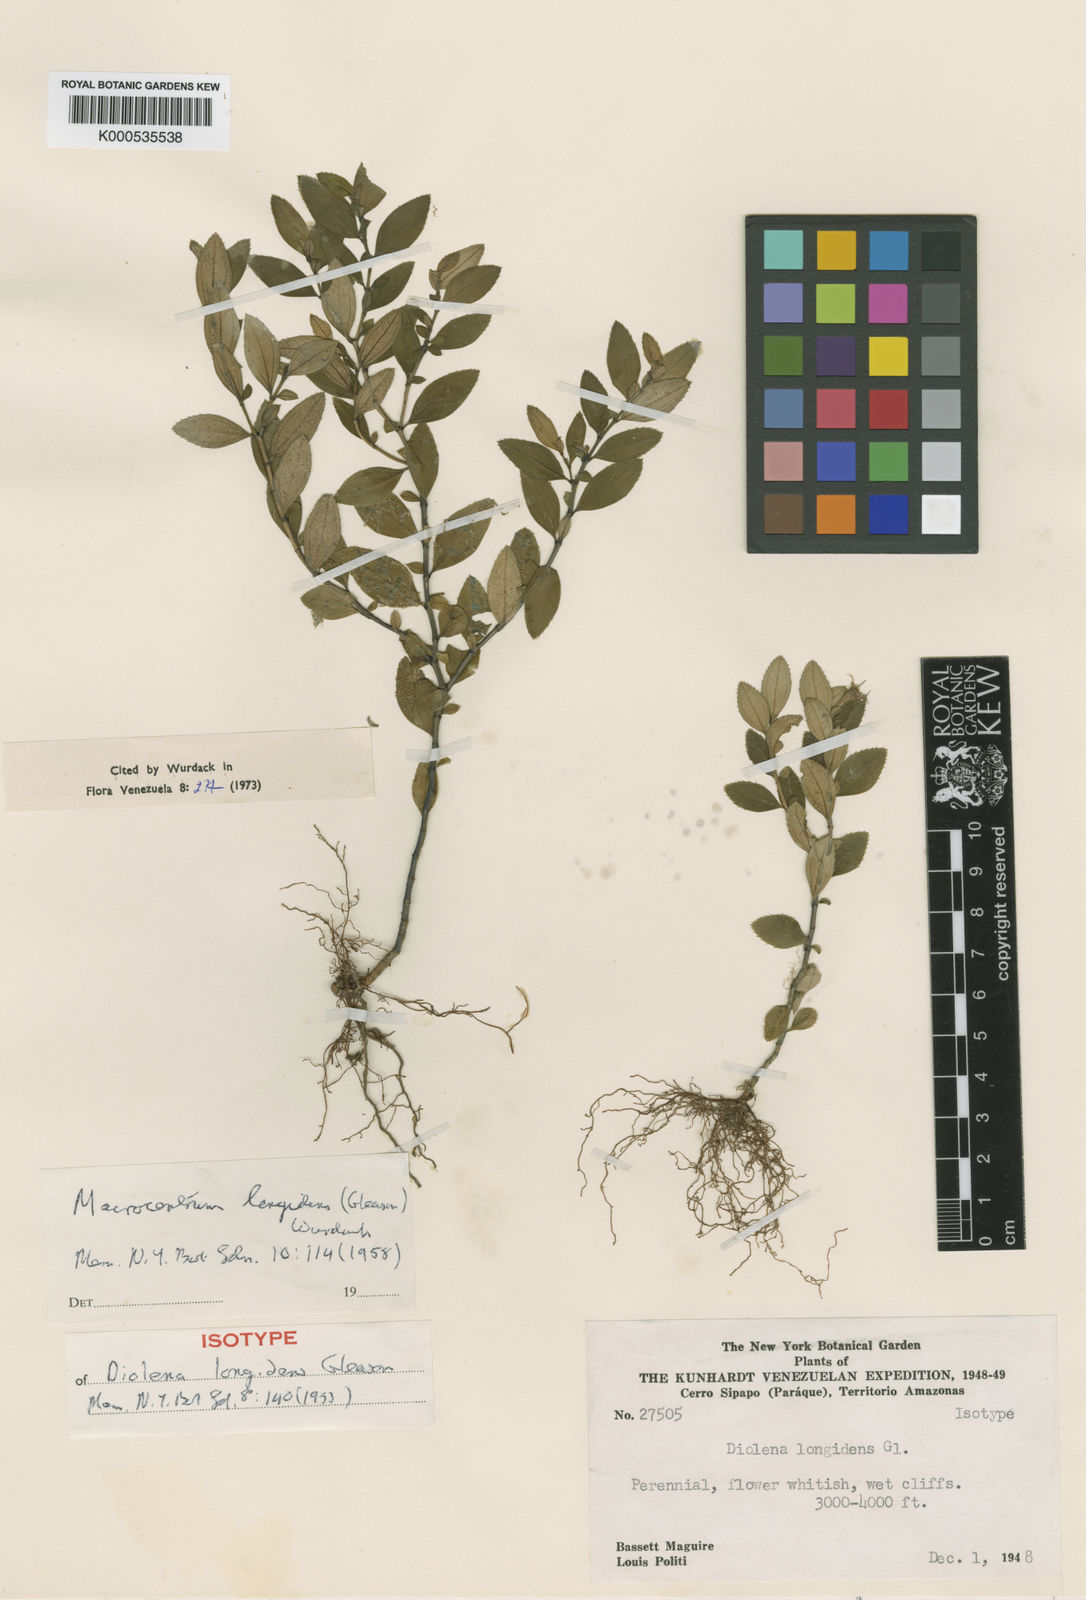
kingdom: Plantae
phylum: Tracheophyta
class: Magnoliopsida
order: Myrtales
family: Melastomataceae
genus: Macrocentrum
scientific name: Macrocentrum longidens
